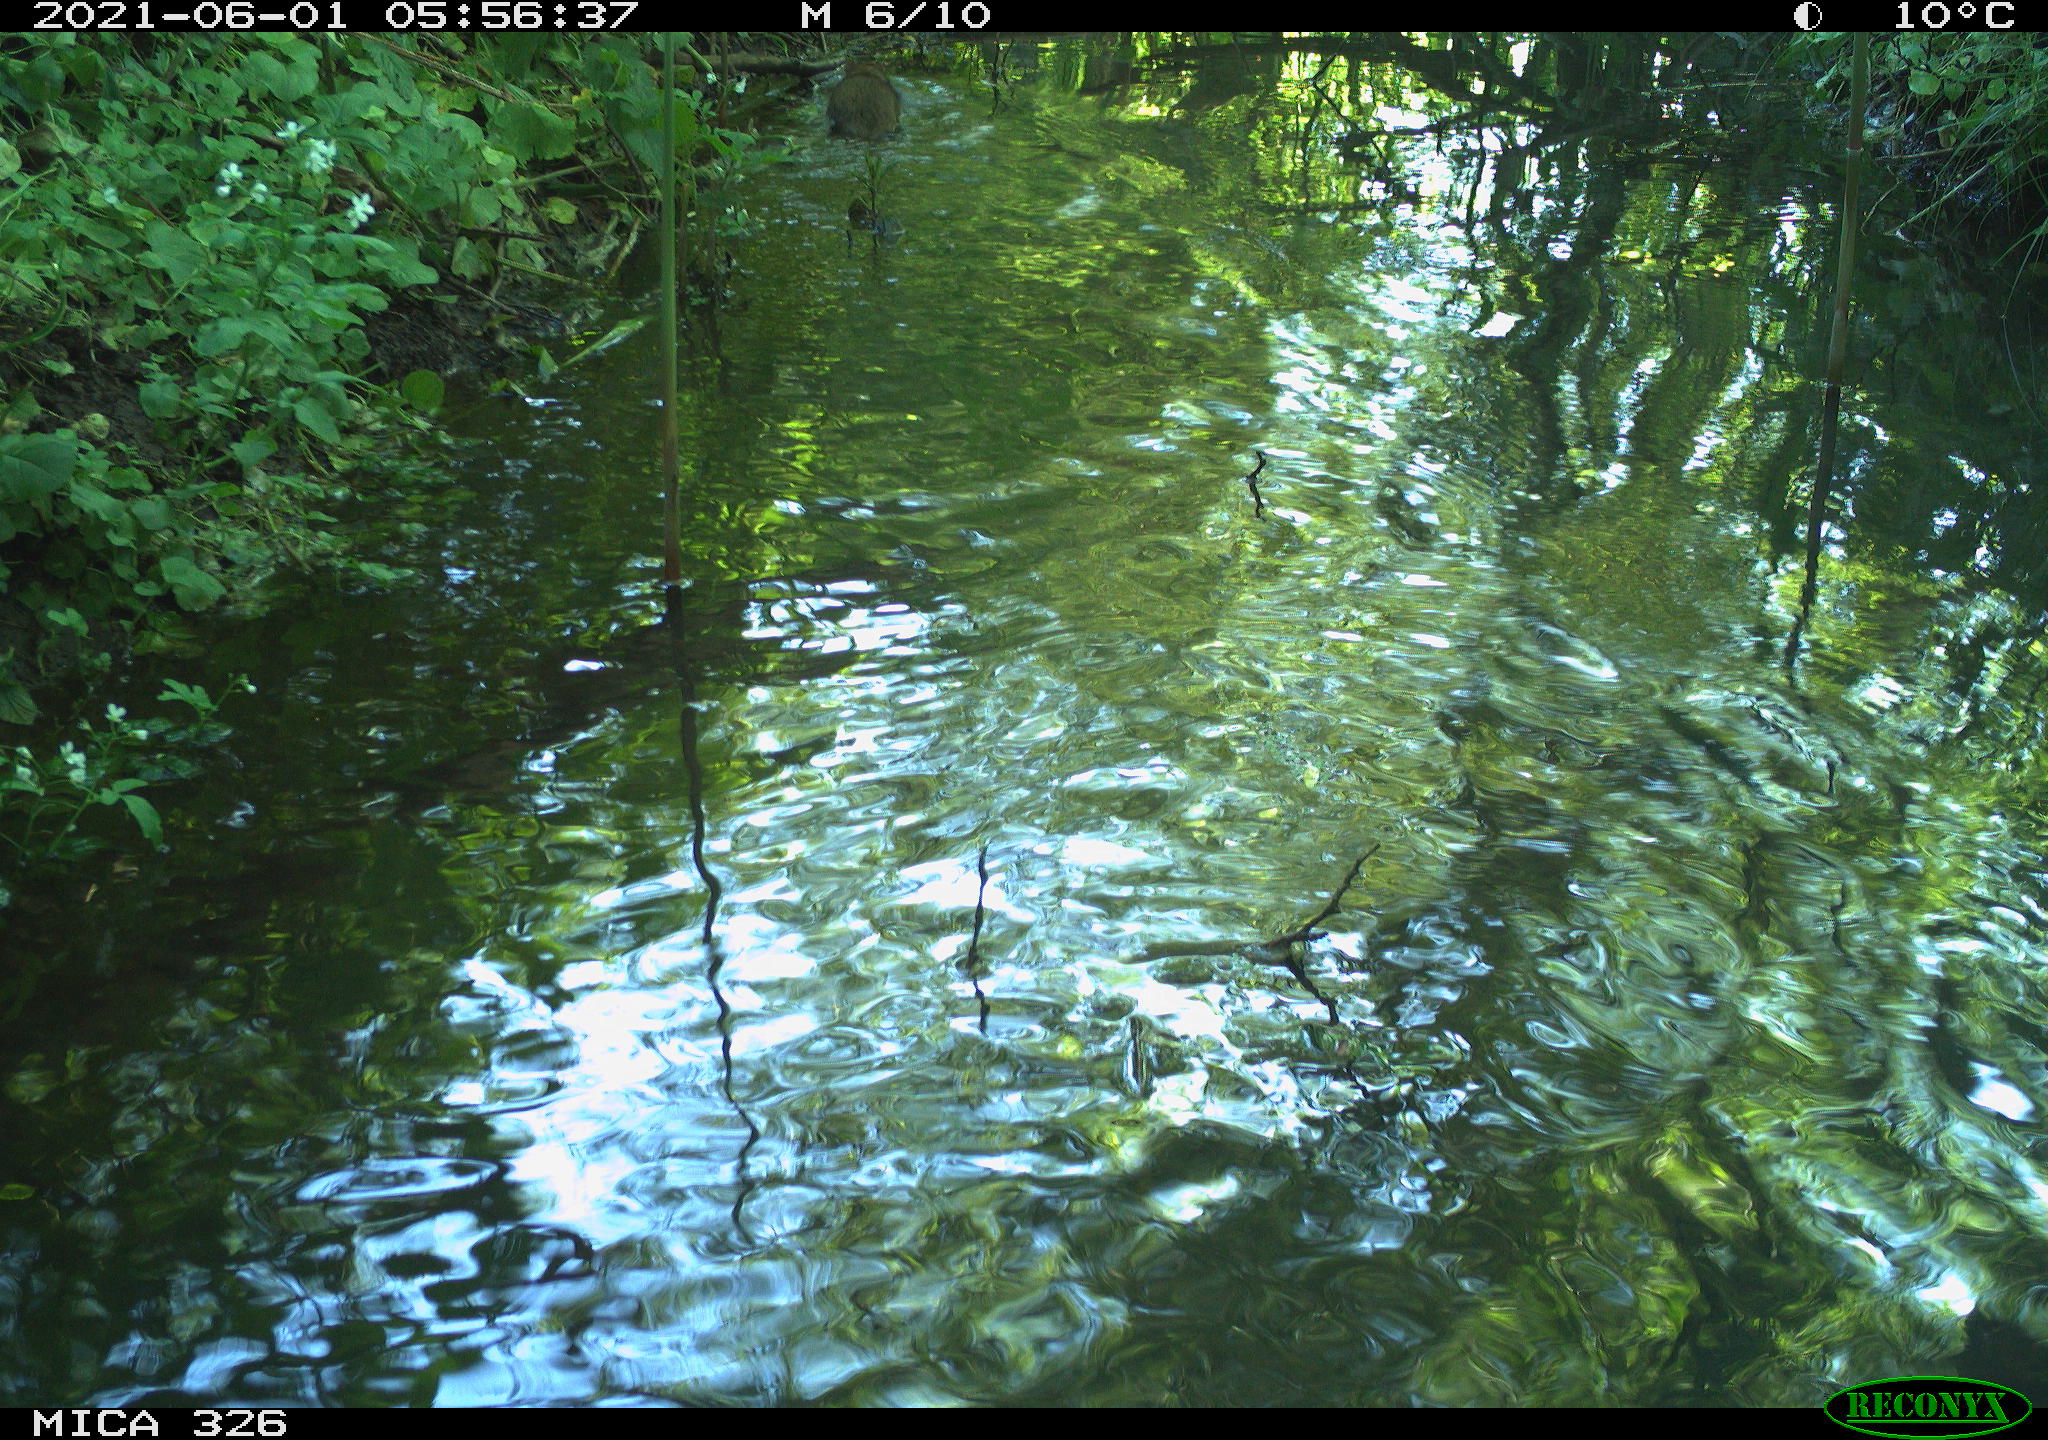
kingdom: Animalia
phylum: Chordata
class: Mammalia
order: Rodentia
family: Muridae
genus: Rattus
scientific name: Rattus norvegicus
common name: Brown rat
